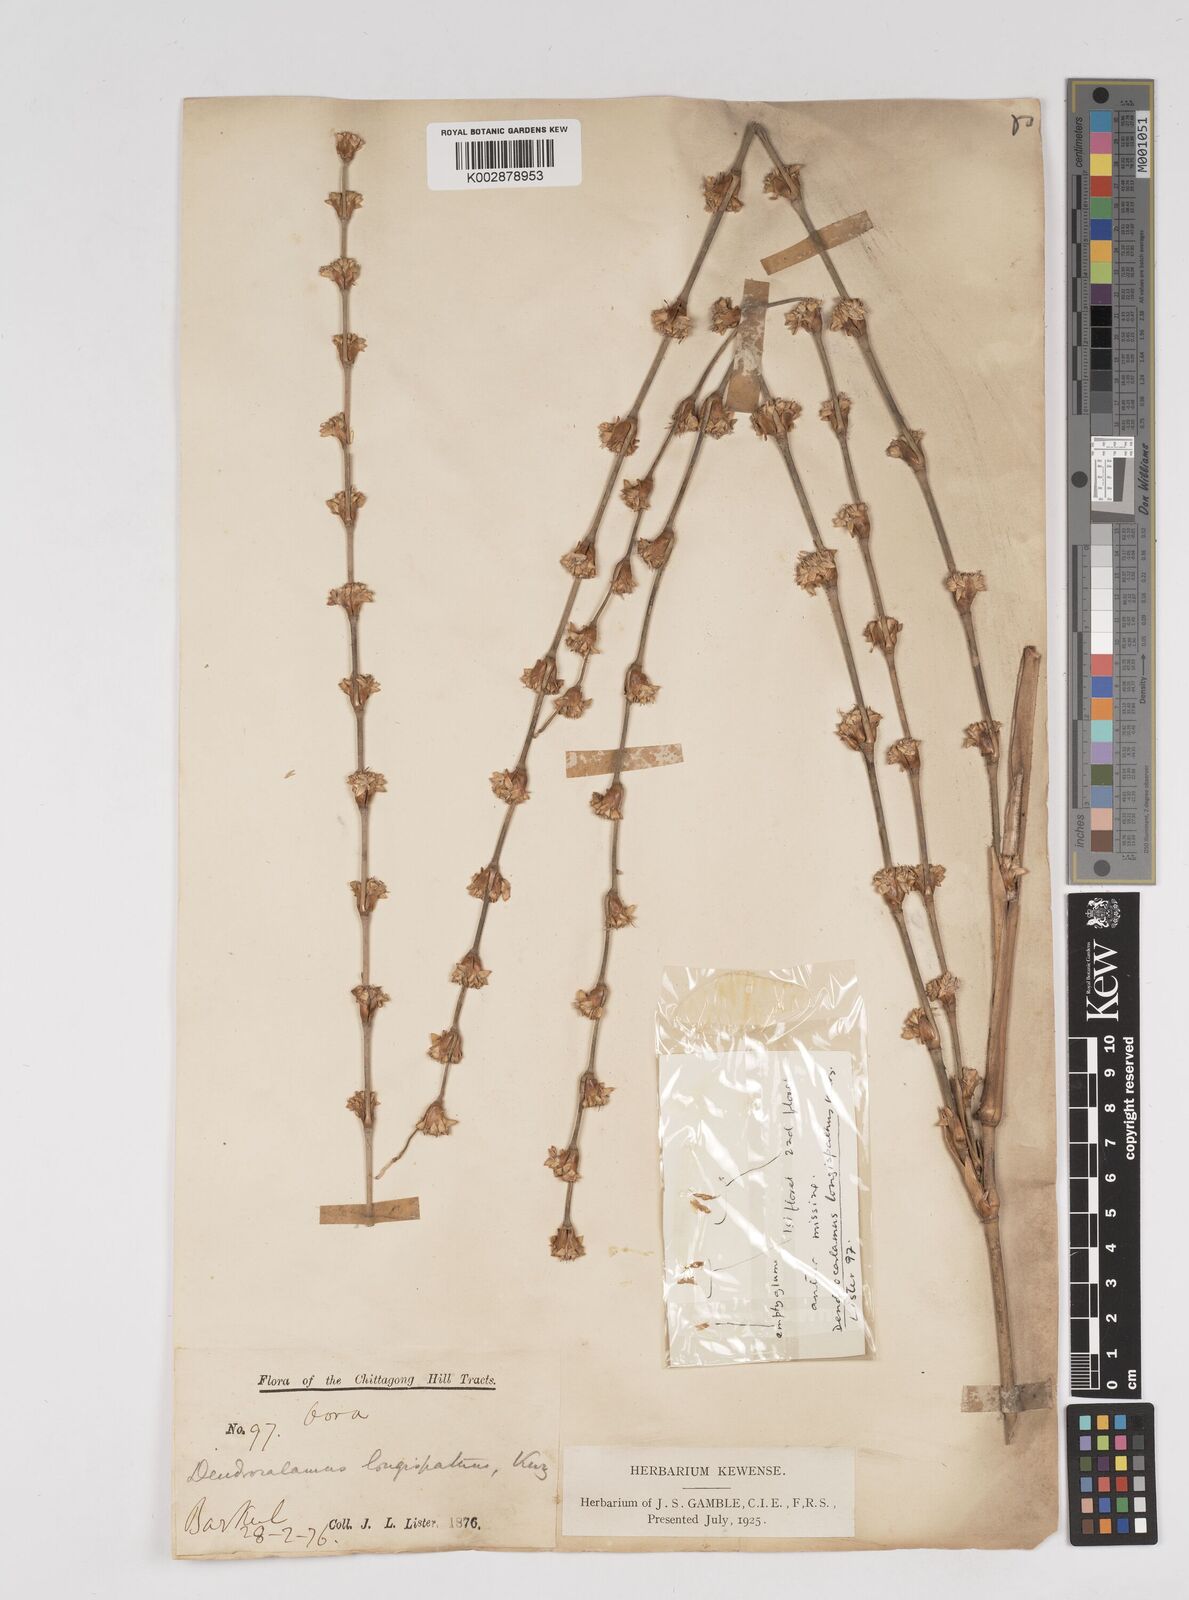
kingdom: Plantae
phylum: Tracheophyta
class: Liliopsida
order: Poales
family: Poaceae
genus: Dendrocalamus
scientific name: Dendrocalamus longispathus
